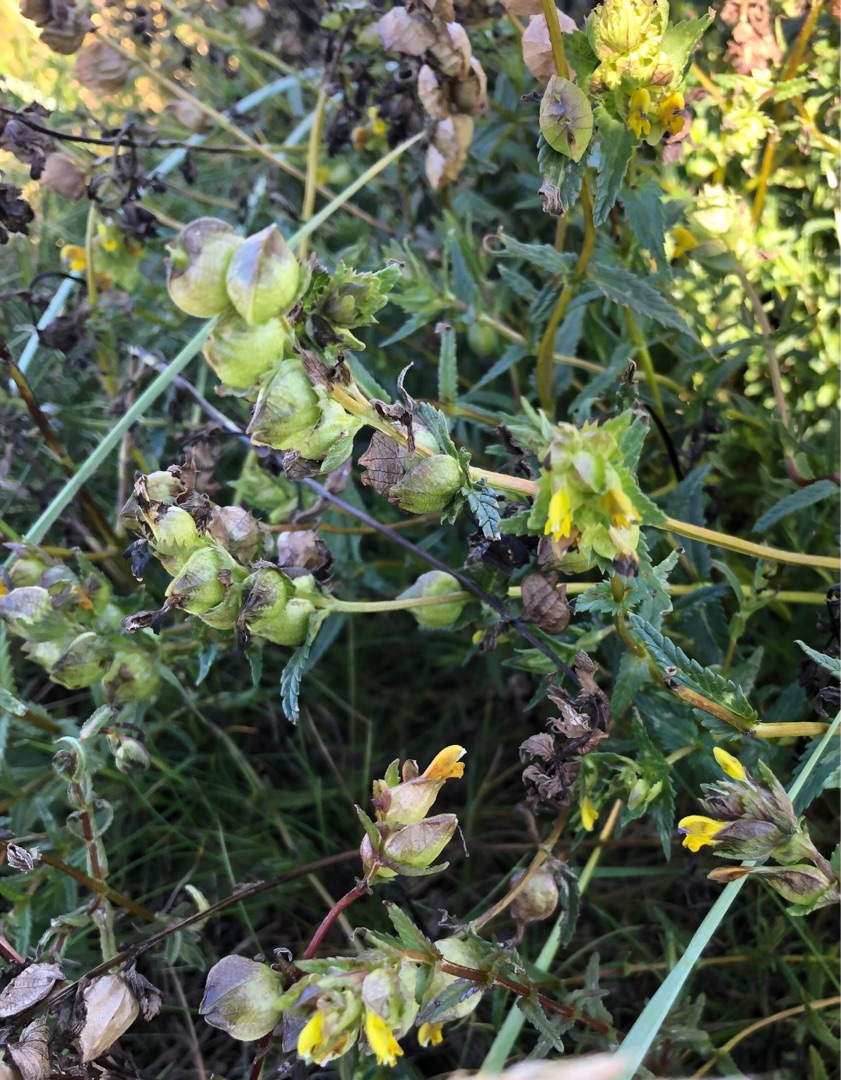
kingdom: Plantae
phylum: Tracheophyta
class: Magnoliopsida
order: Lamiales
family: Orobanchaceae
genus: Rhinanthus
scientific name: Rhinanthus minor
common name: Liden skjaller
